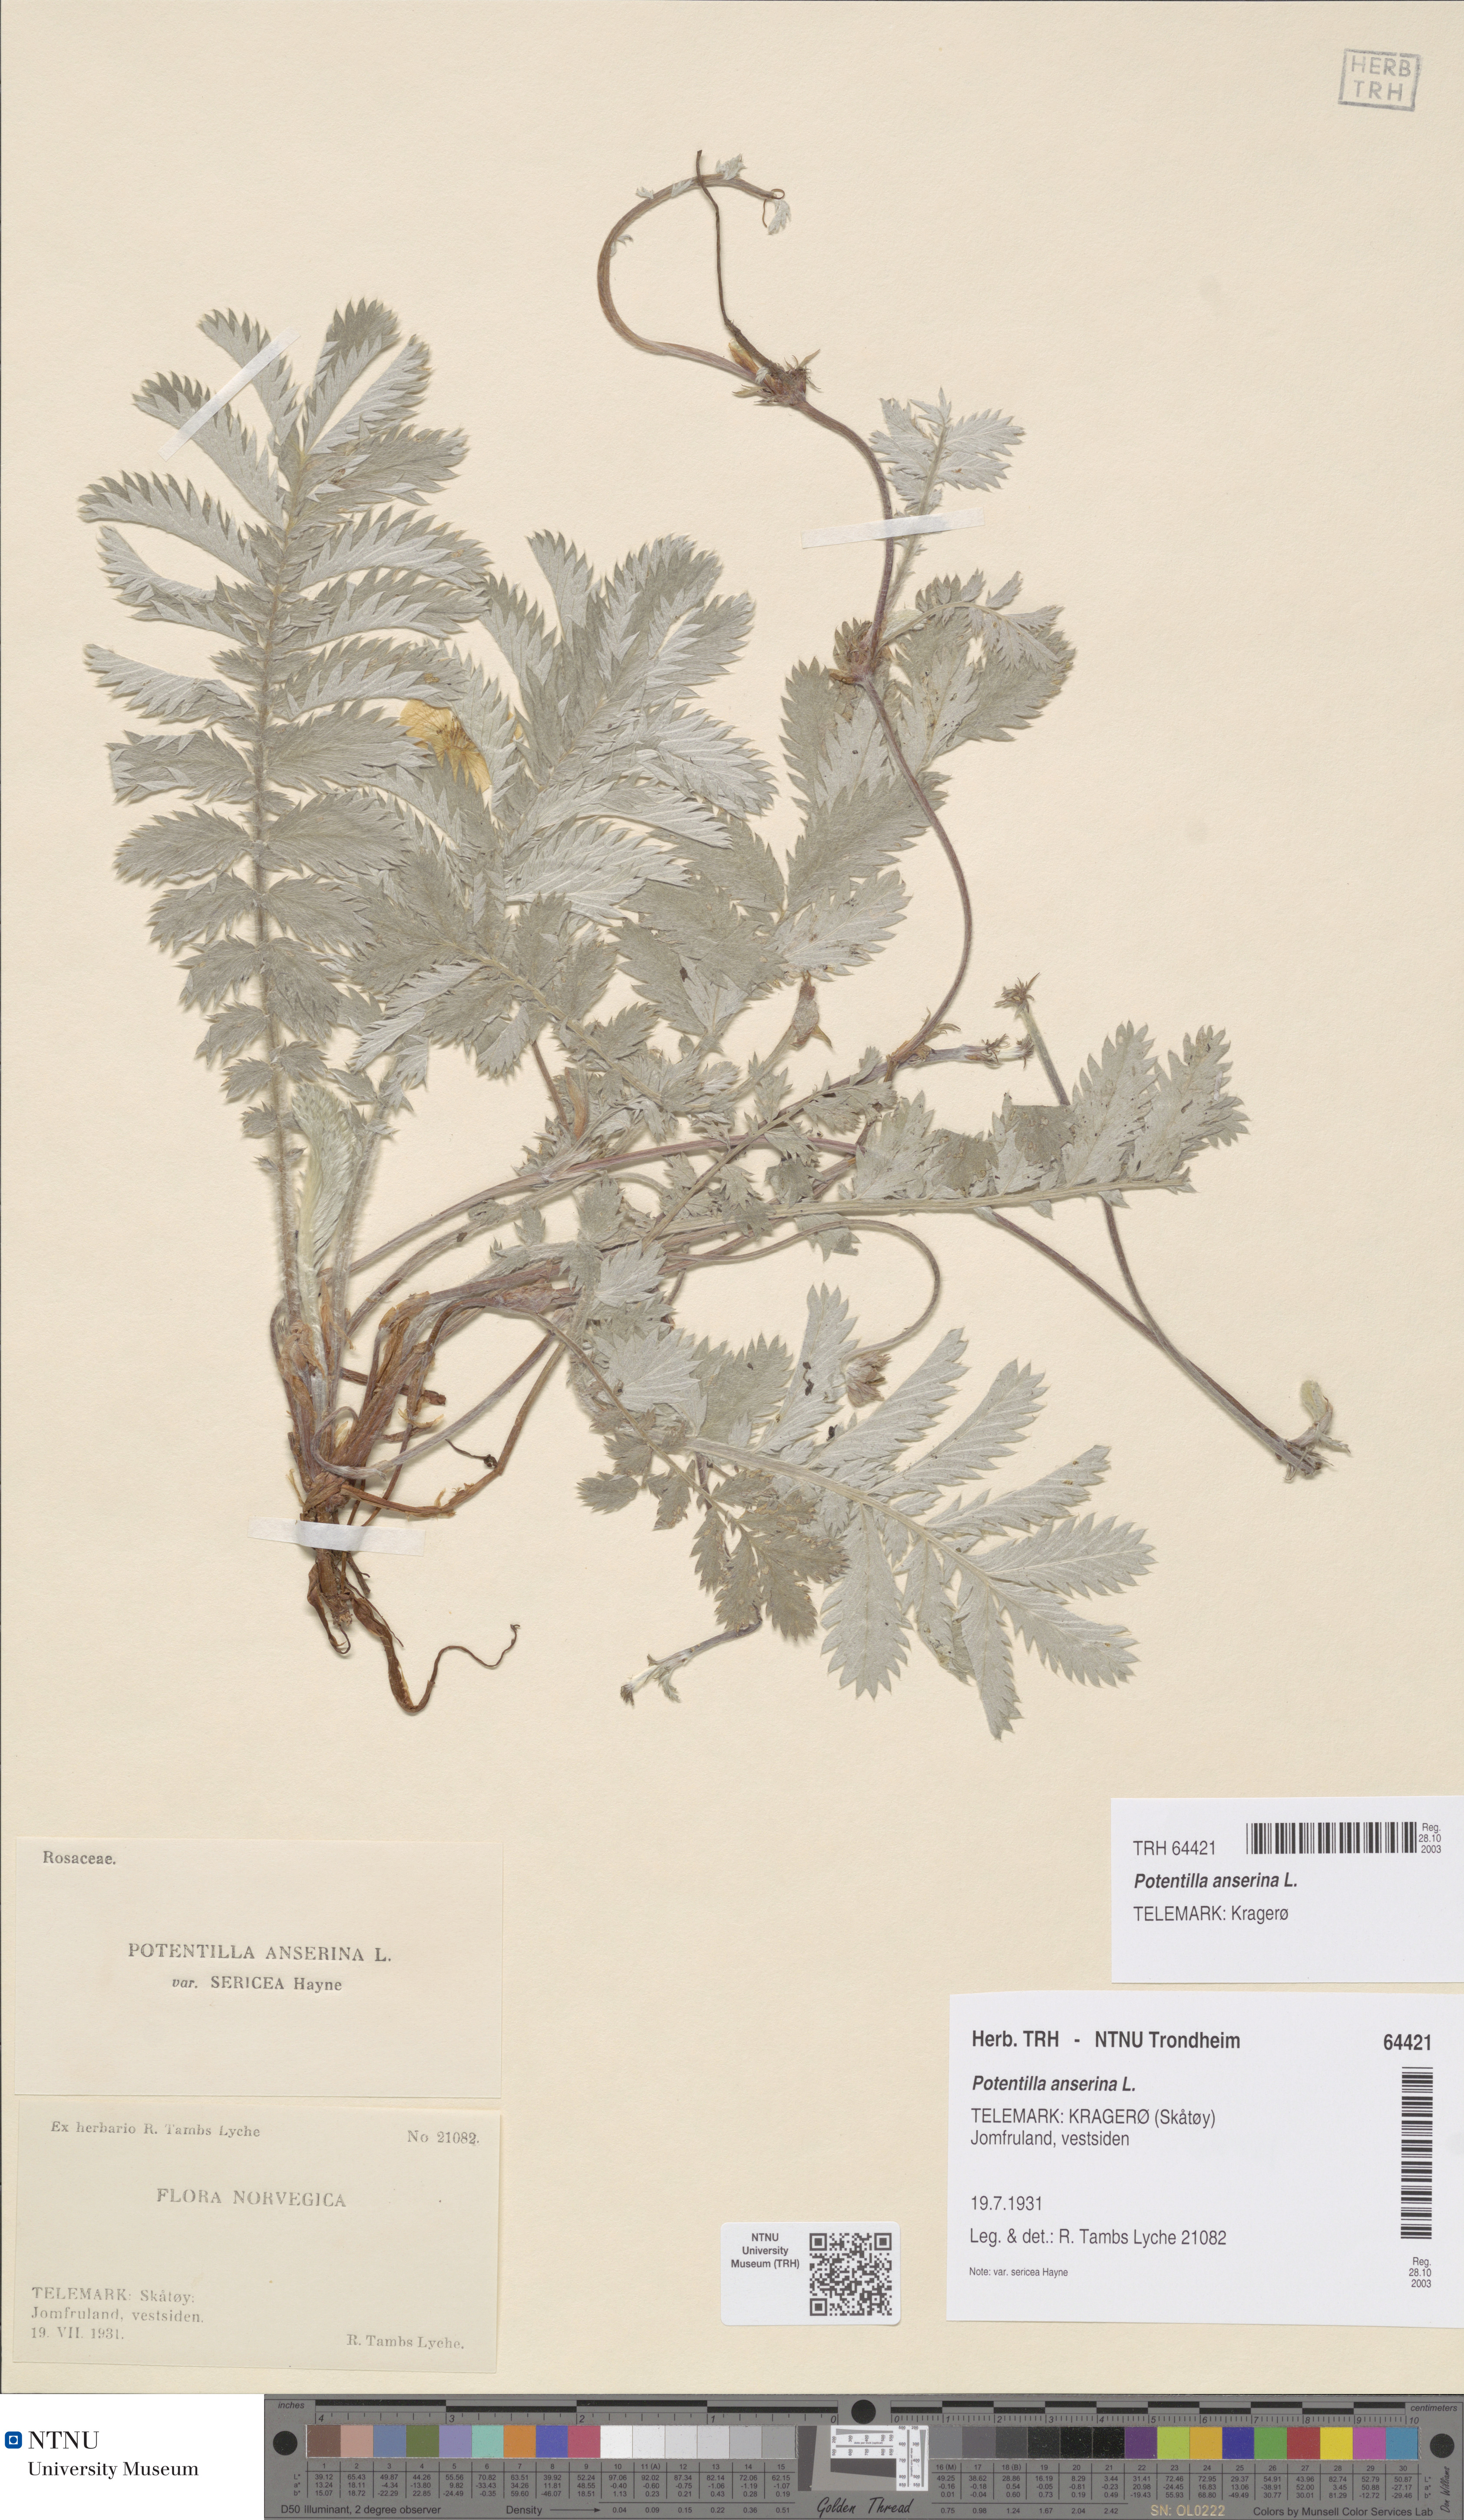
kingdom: Plantae
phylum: Tracheophyta
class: Magnoliopsida
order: Rosales
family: Rosaceae
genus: Argentina
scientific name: Argentina anserina
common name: Common silverweed
